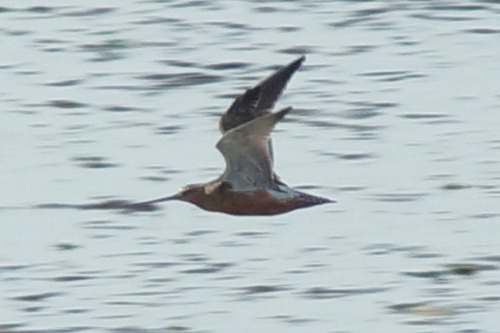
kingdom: Animalia
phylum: Chordata
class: Aves
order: Charadriiformes
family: Scolopacidae
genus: Limosa
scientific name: Limosa lapponica
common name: Lille kobbersneppe
